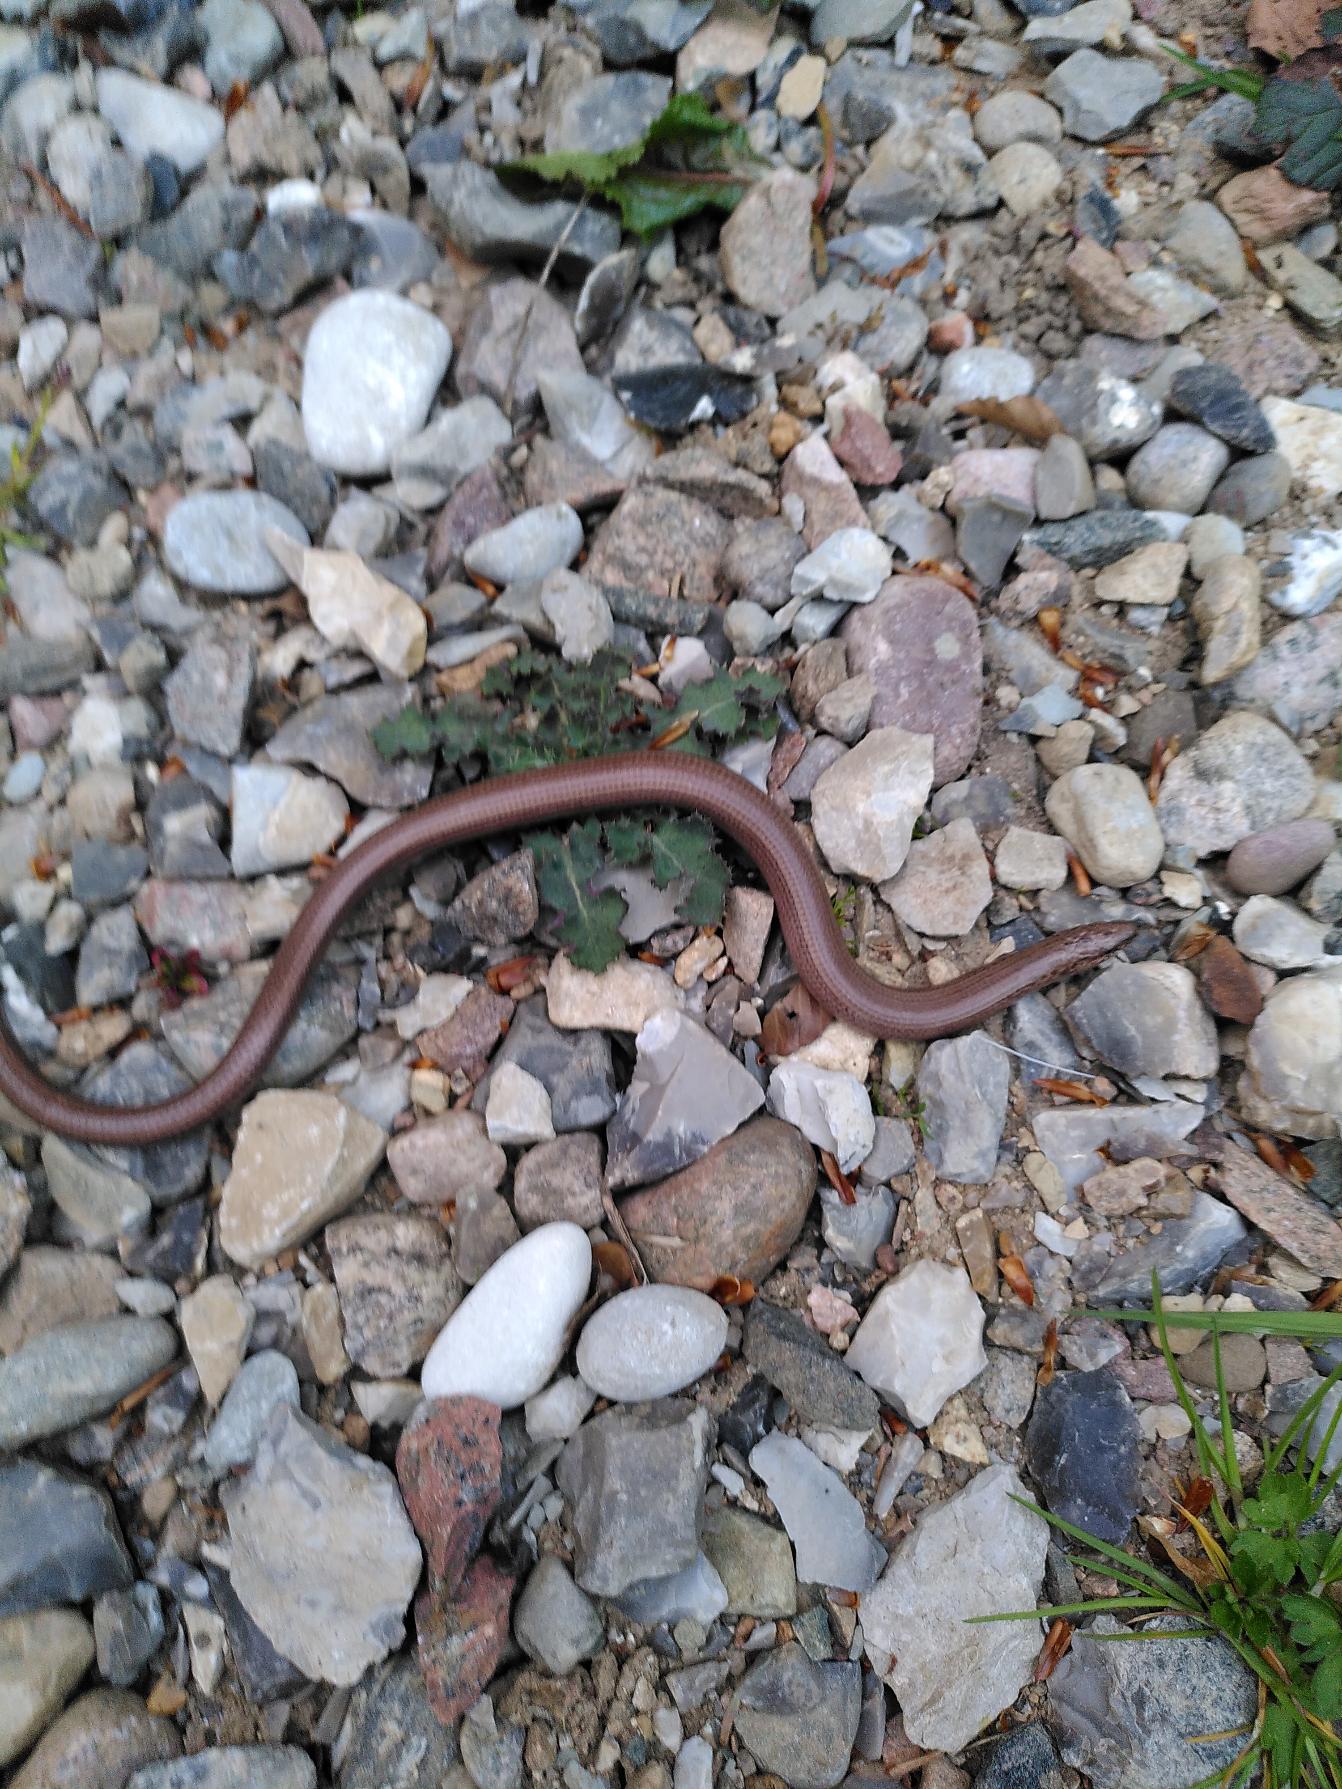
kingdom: Animalia
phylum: Chordata
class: Squamata
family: Anguidae
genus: Anguis
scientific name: Anguis fragilis
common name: Stålorm
